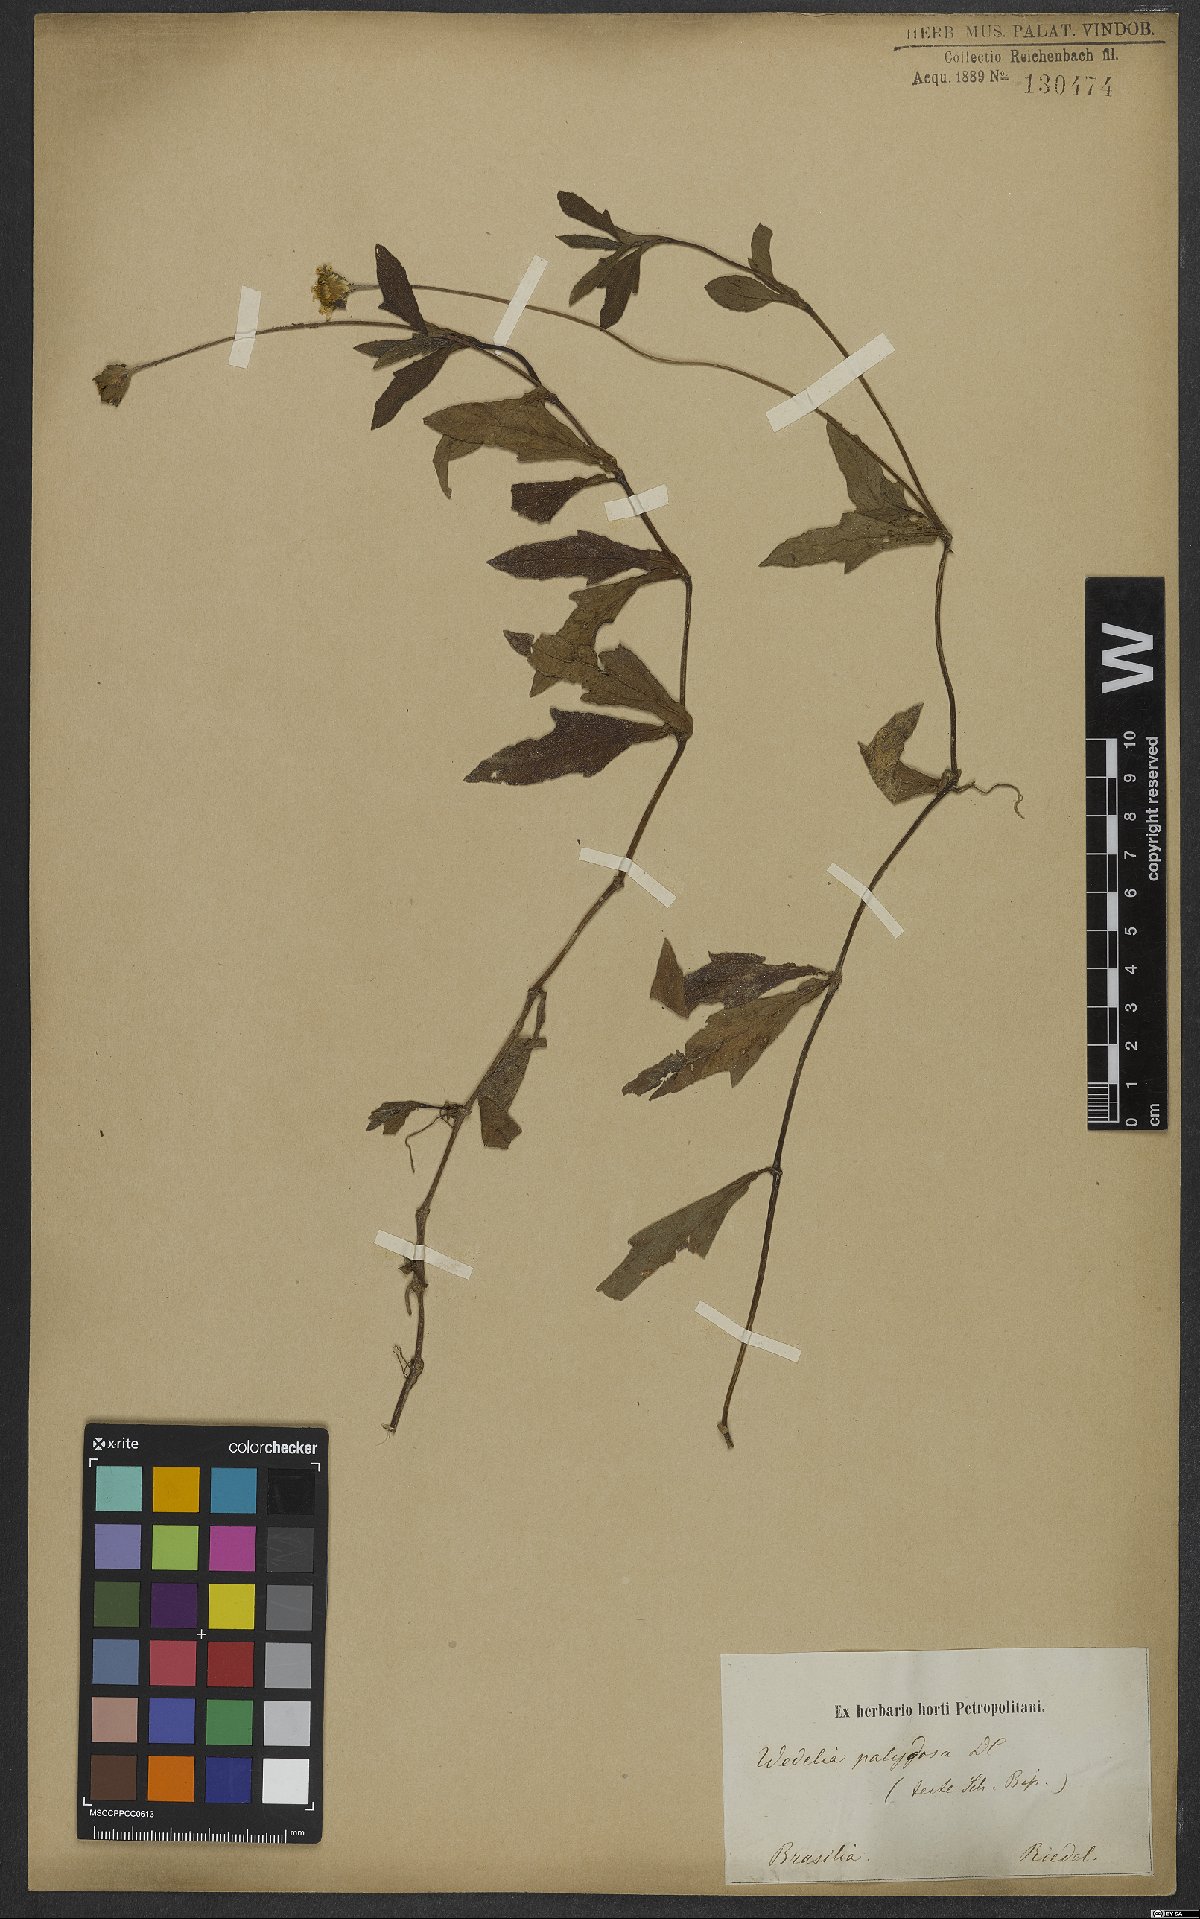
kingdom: Plantae
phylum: Tracheophyta
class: Magnoliopsida
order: Asterales
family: Asteraceae
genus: Sphagneticola
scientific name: Sphagneticola trilobata
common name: Bay biscayne creeping-oxeye
